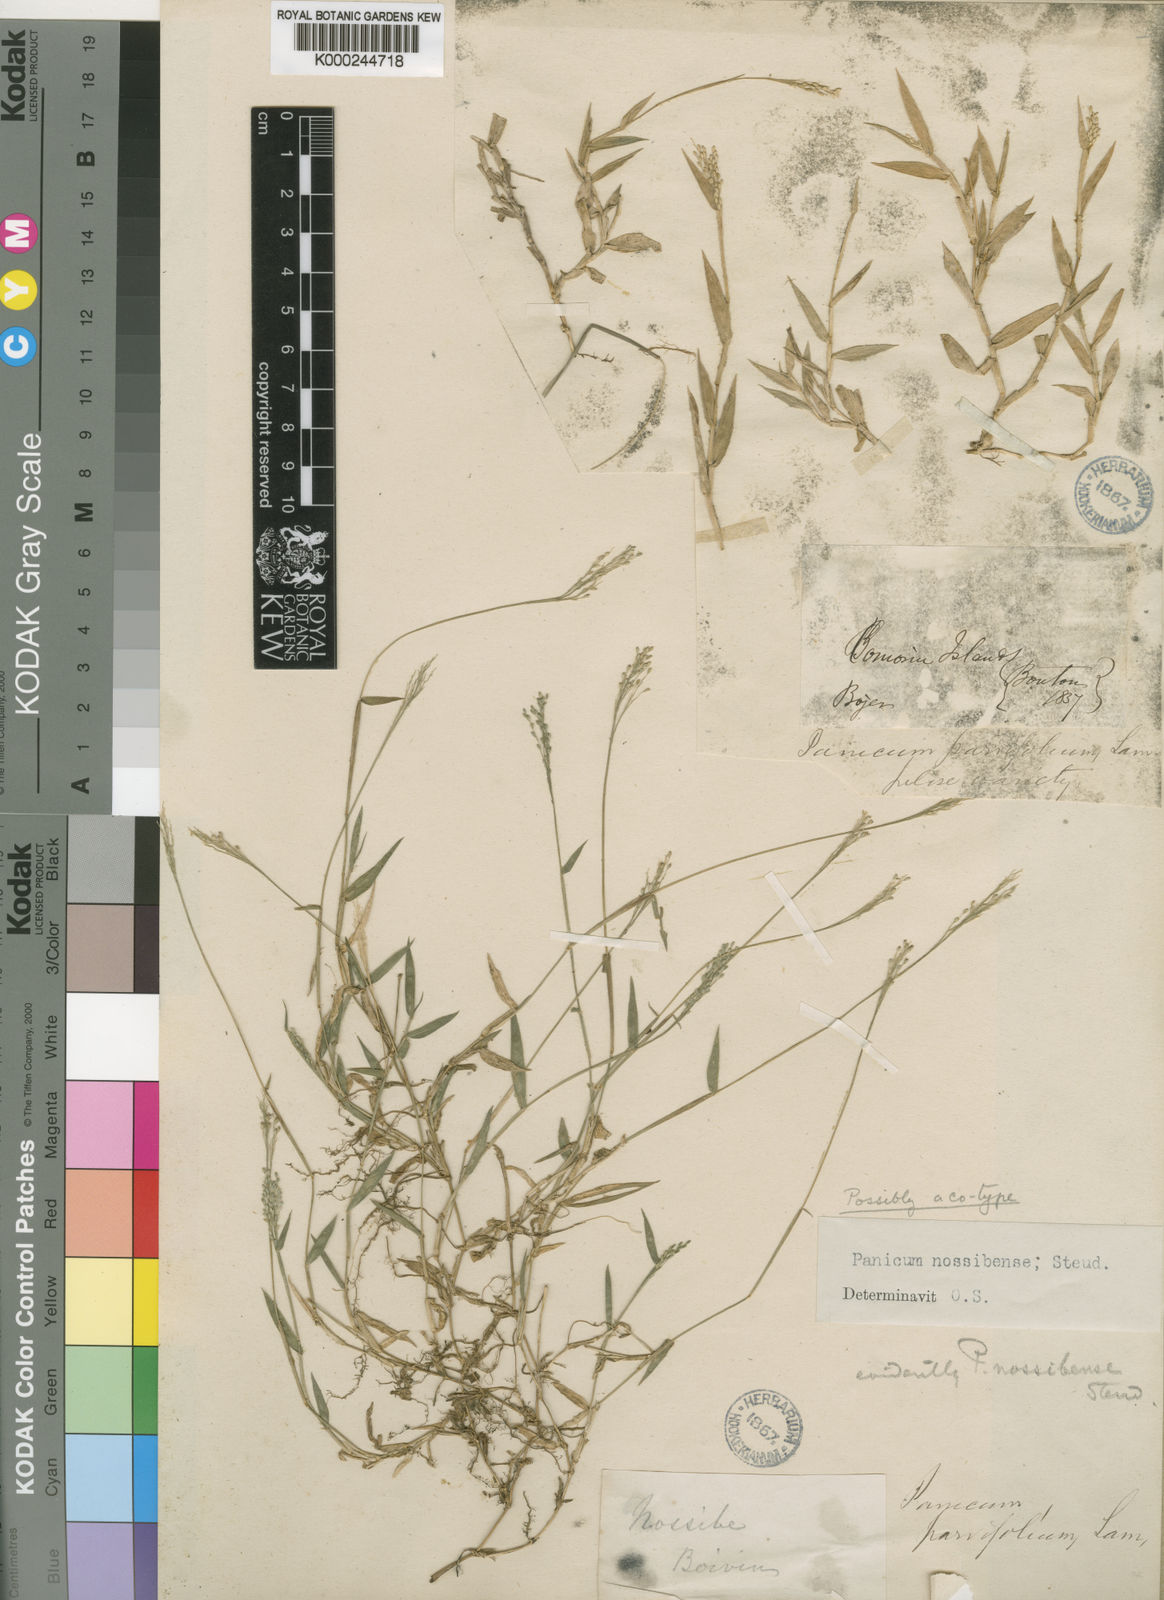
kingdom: Plantae
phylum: Tracheophyta
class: Liliopsida
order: Poales
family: Poaceae
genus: Urochloa
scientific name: Urochloa Brachiaria umbellata
